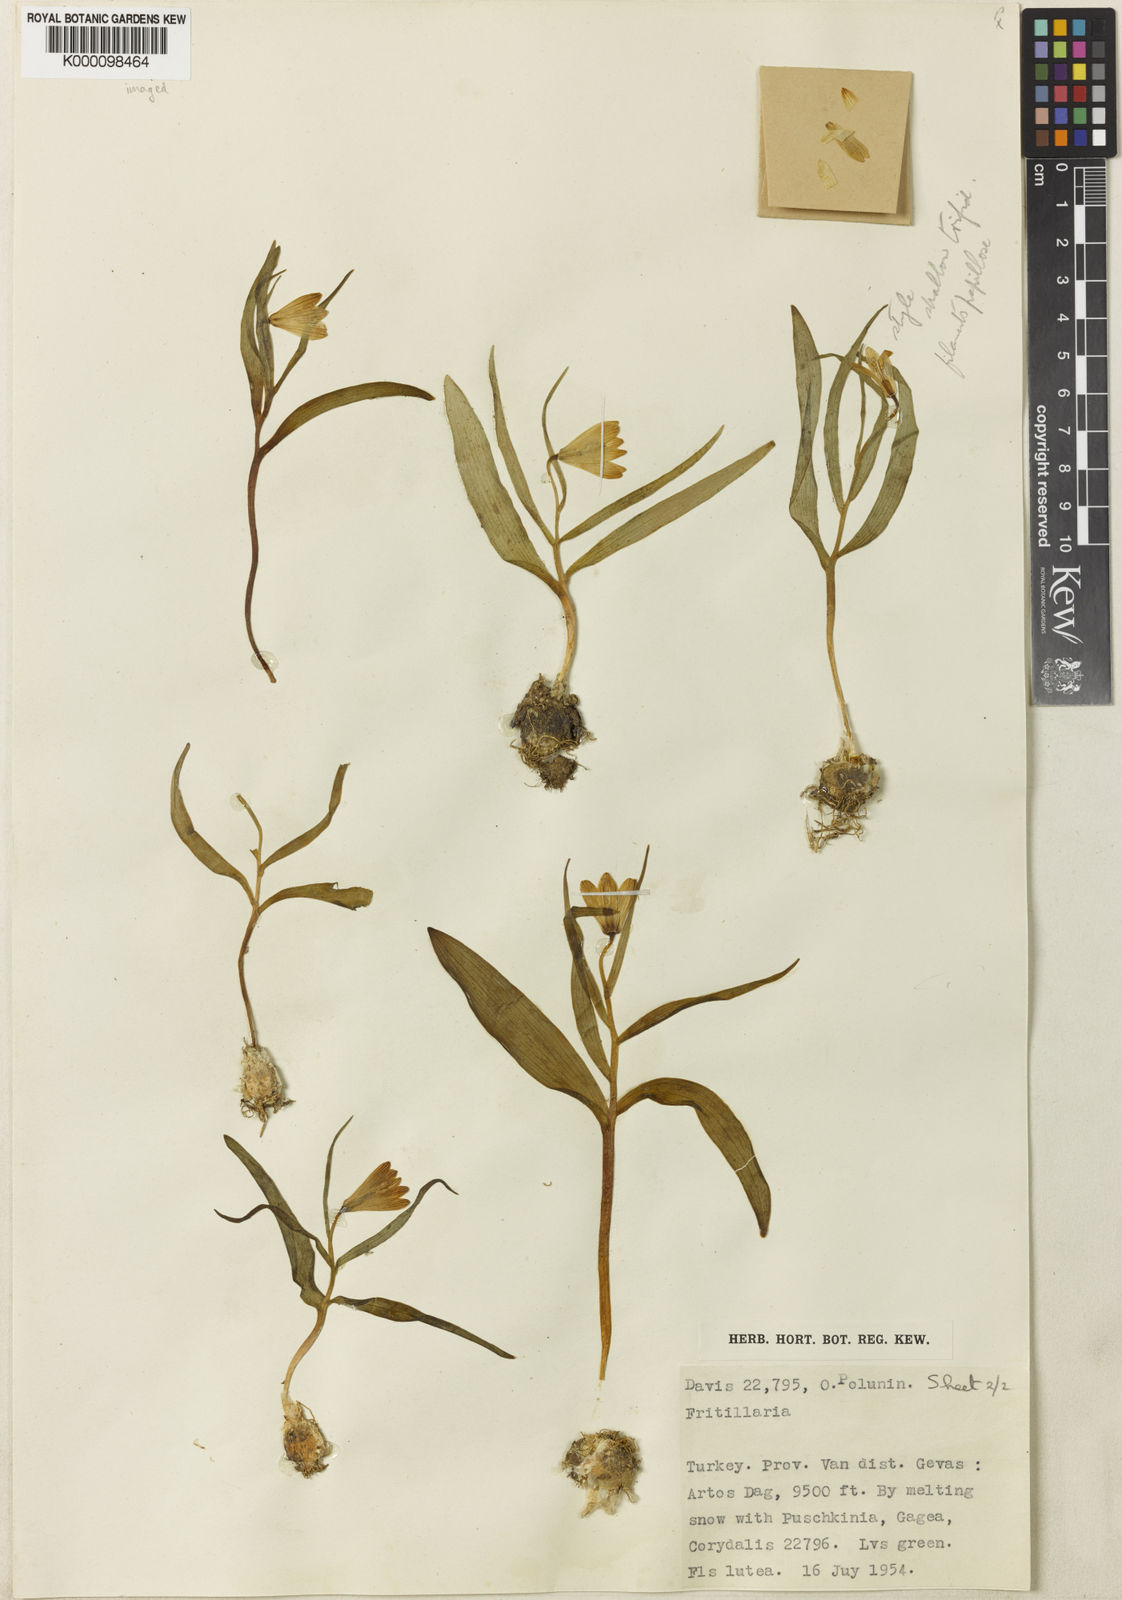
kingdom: Plantae
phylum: Tracheophyta
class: Liliopsida
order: Liliales
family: Liliaceae
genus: Fritillaria
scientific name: Fritillaria minima
